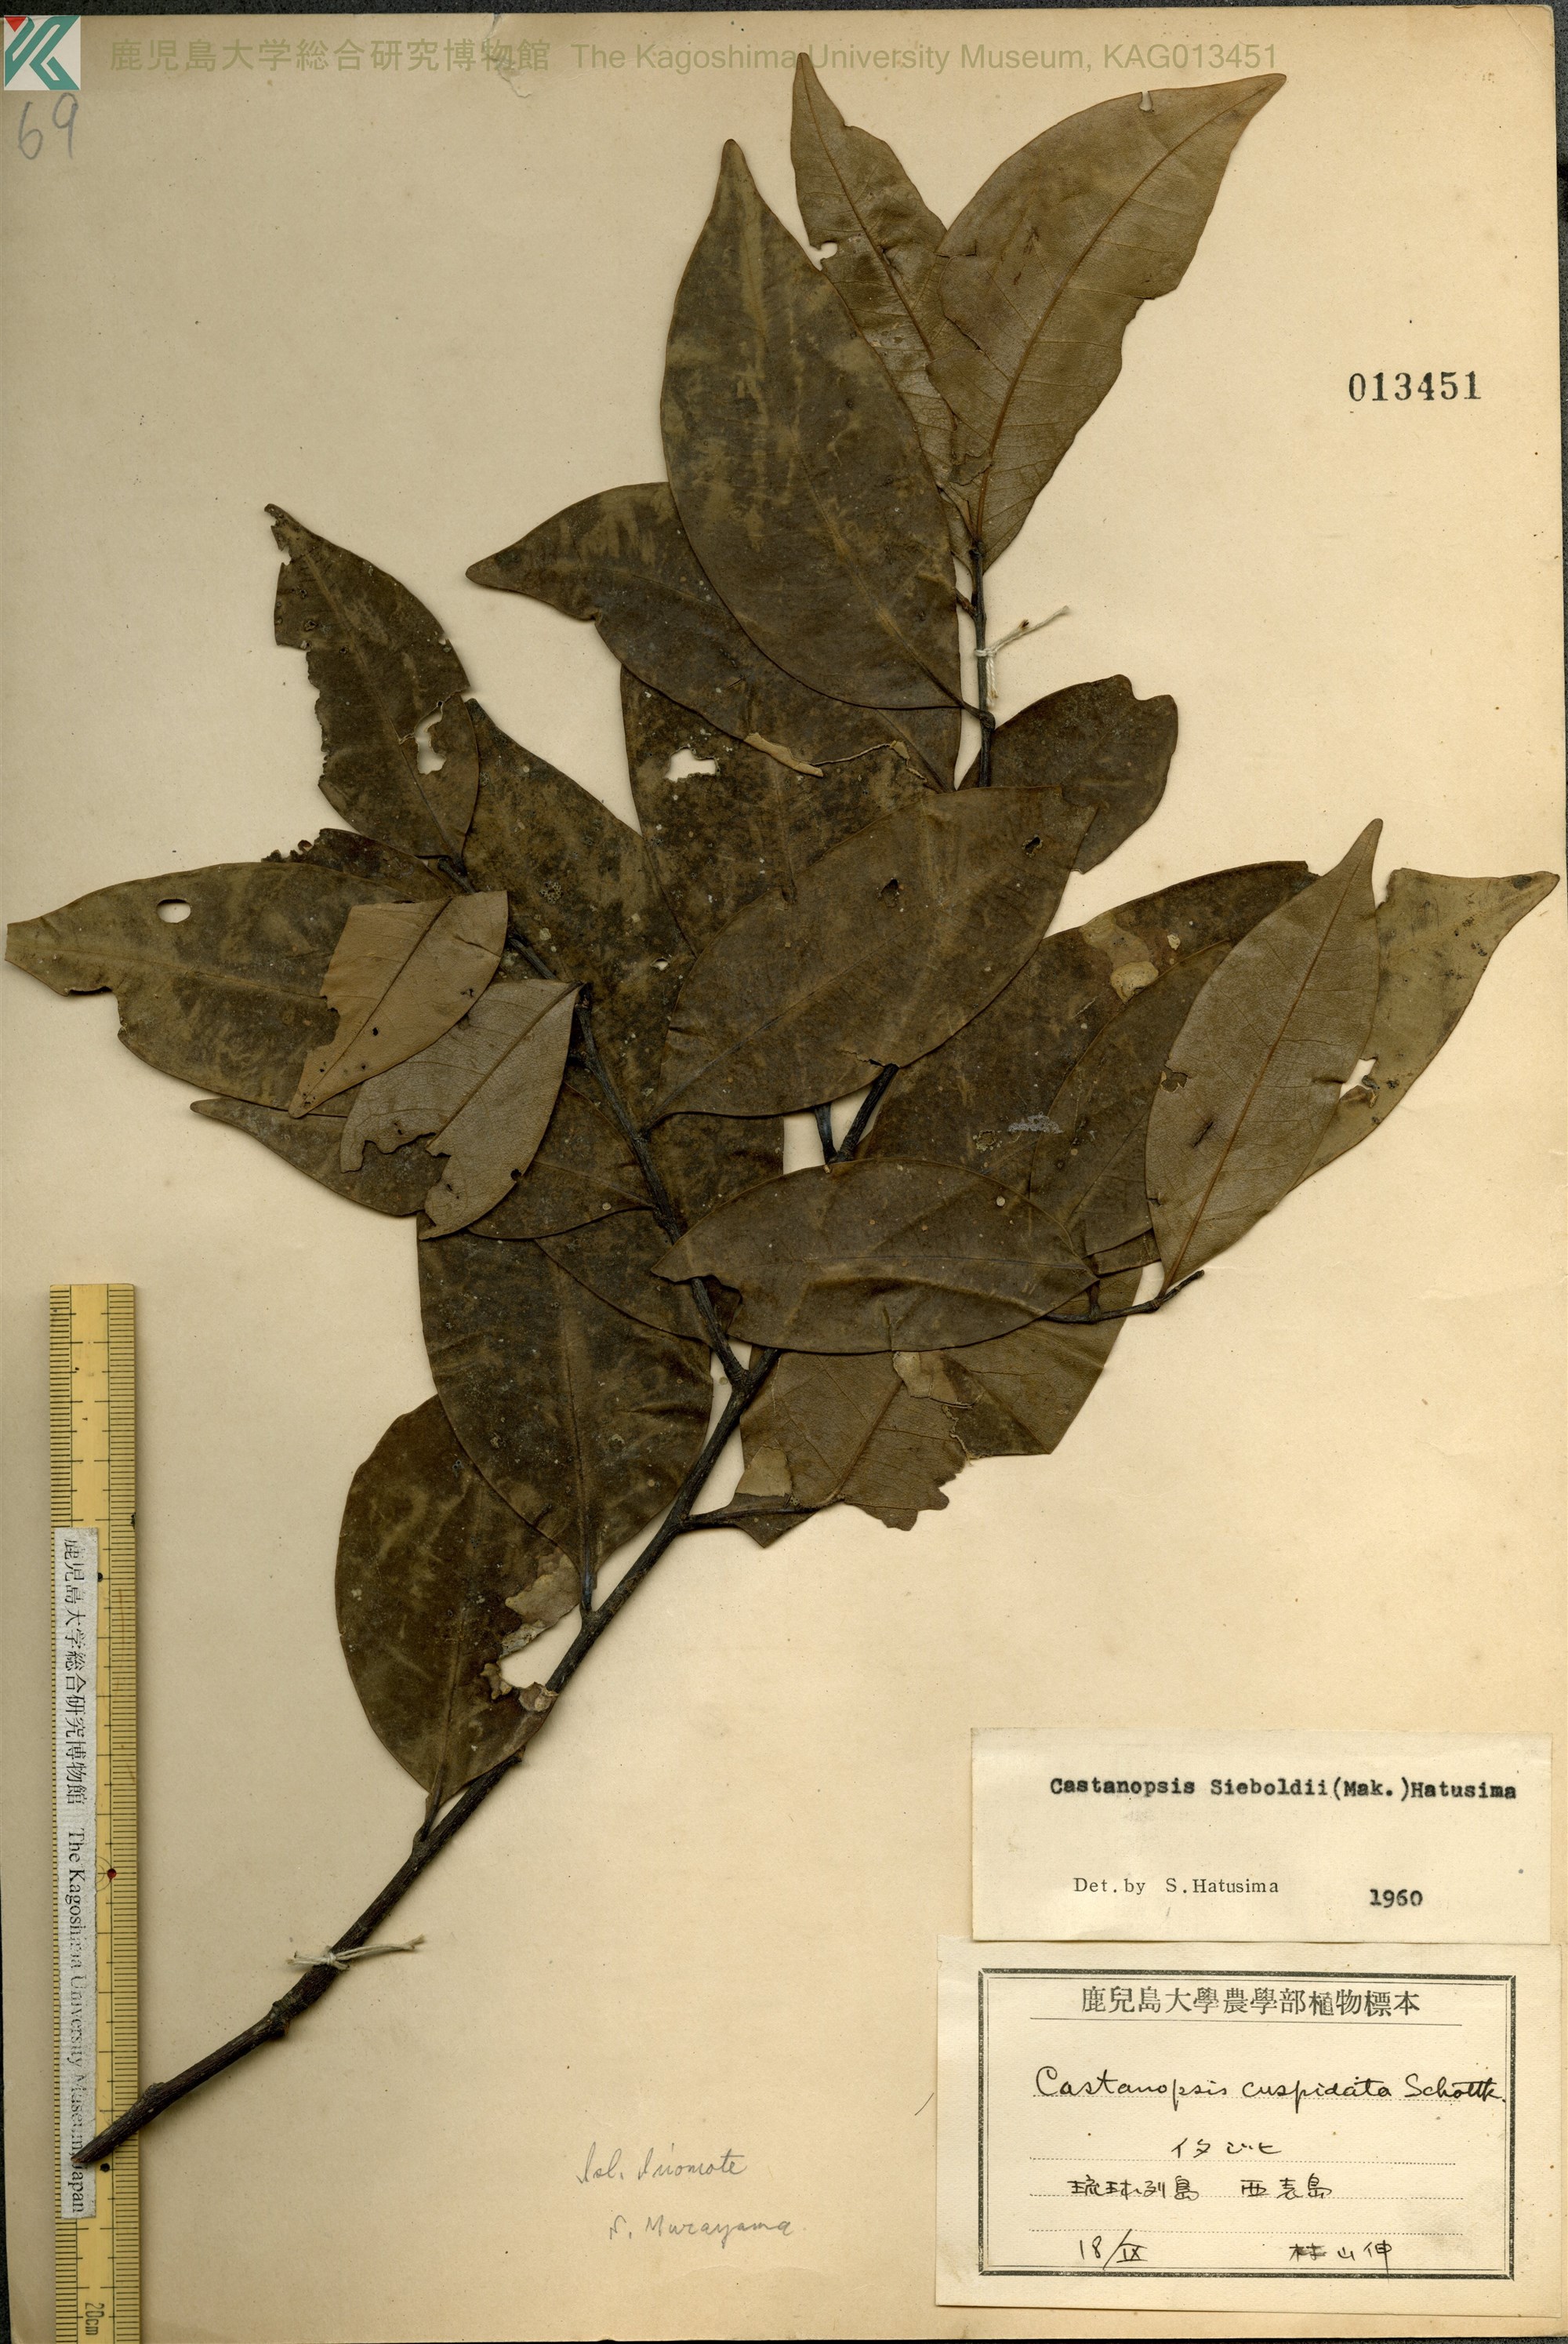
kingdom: Plantae
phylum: Tracheophyta
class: Magnoliopsida
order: Fagales
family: Fagaceae
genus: Castanopsis
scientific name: Castanopsis sieboldii
